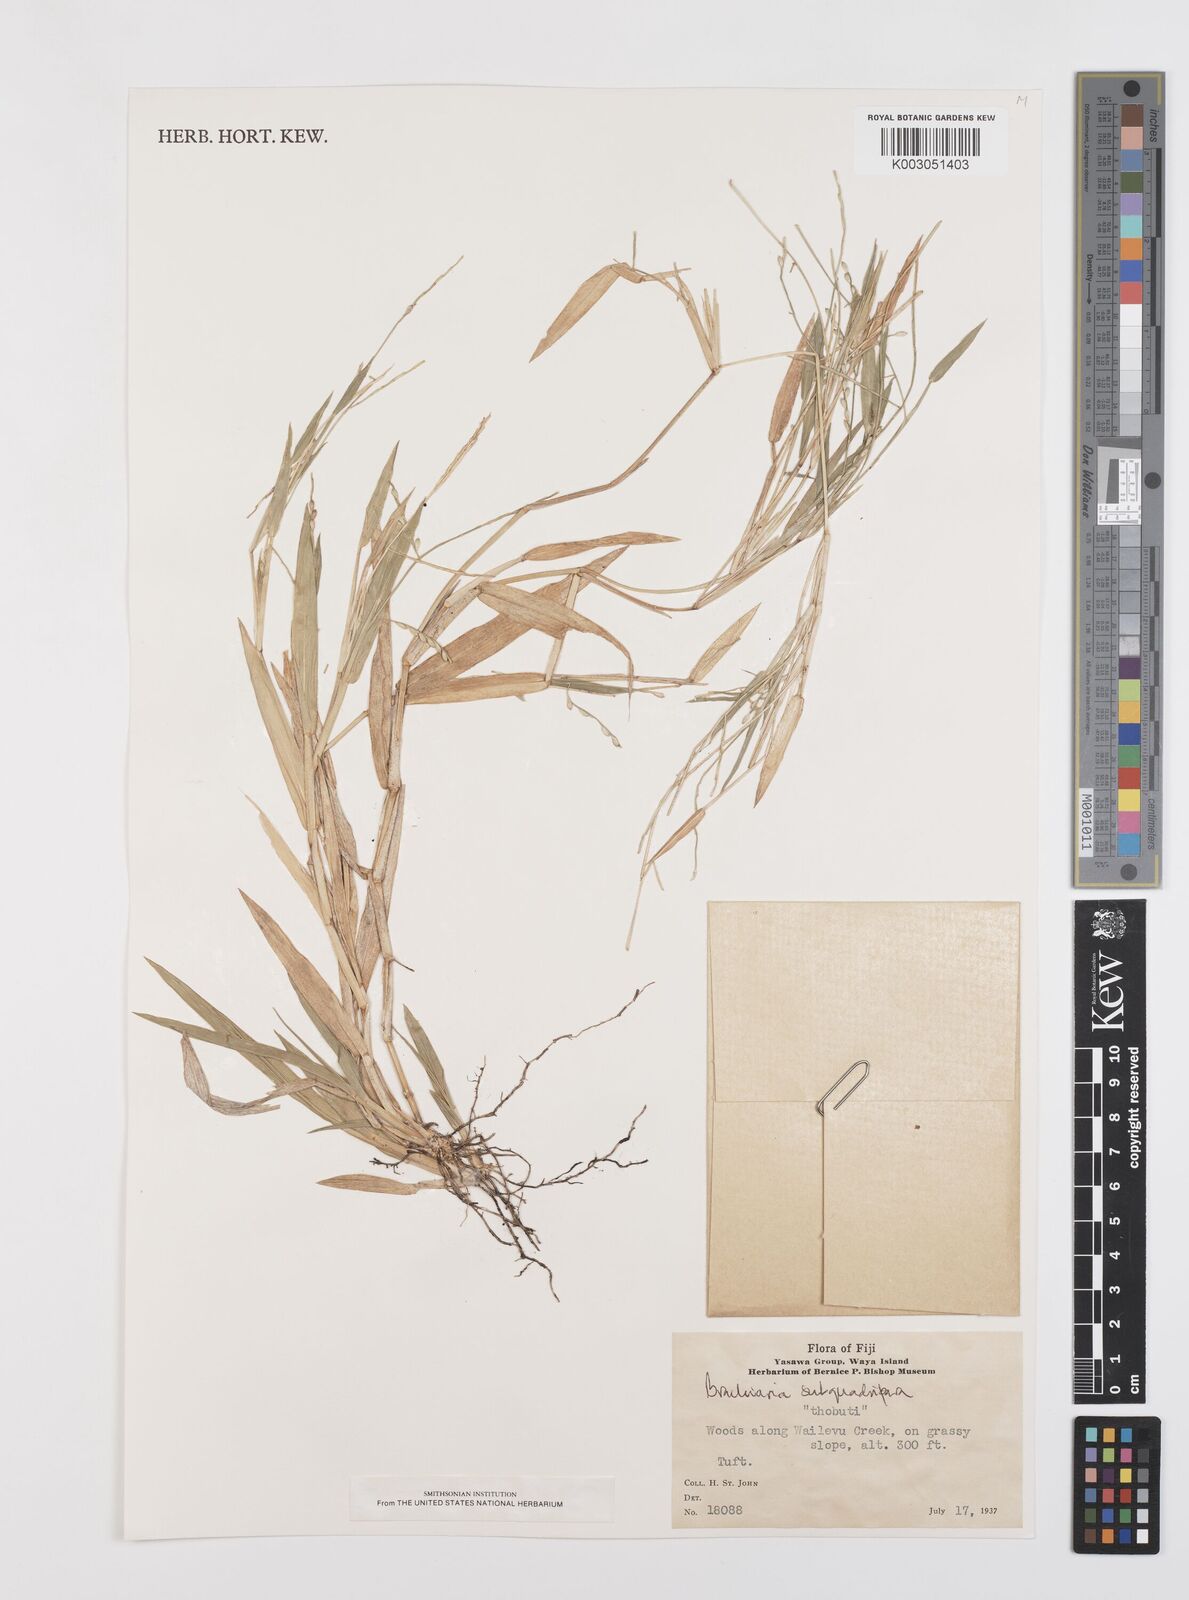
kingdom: Plantae
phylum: Tracheophyta
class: Liliopsida
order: Poales
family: Poaceae
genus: Urochloa
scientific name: Urochloa subquadripara
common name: Armgrass millet
